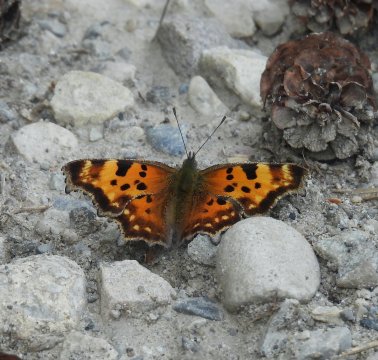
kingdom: Animalia
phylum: Arthropoda
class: Insecta
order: Lepidoptera
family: Nymphalidae
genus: Polygonia
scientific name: Polygonia faunus
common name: Green Comma
